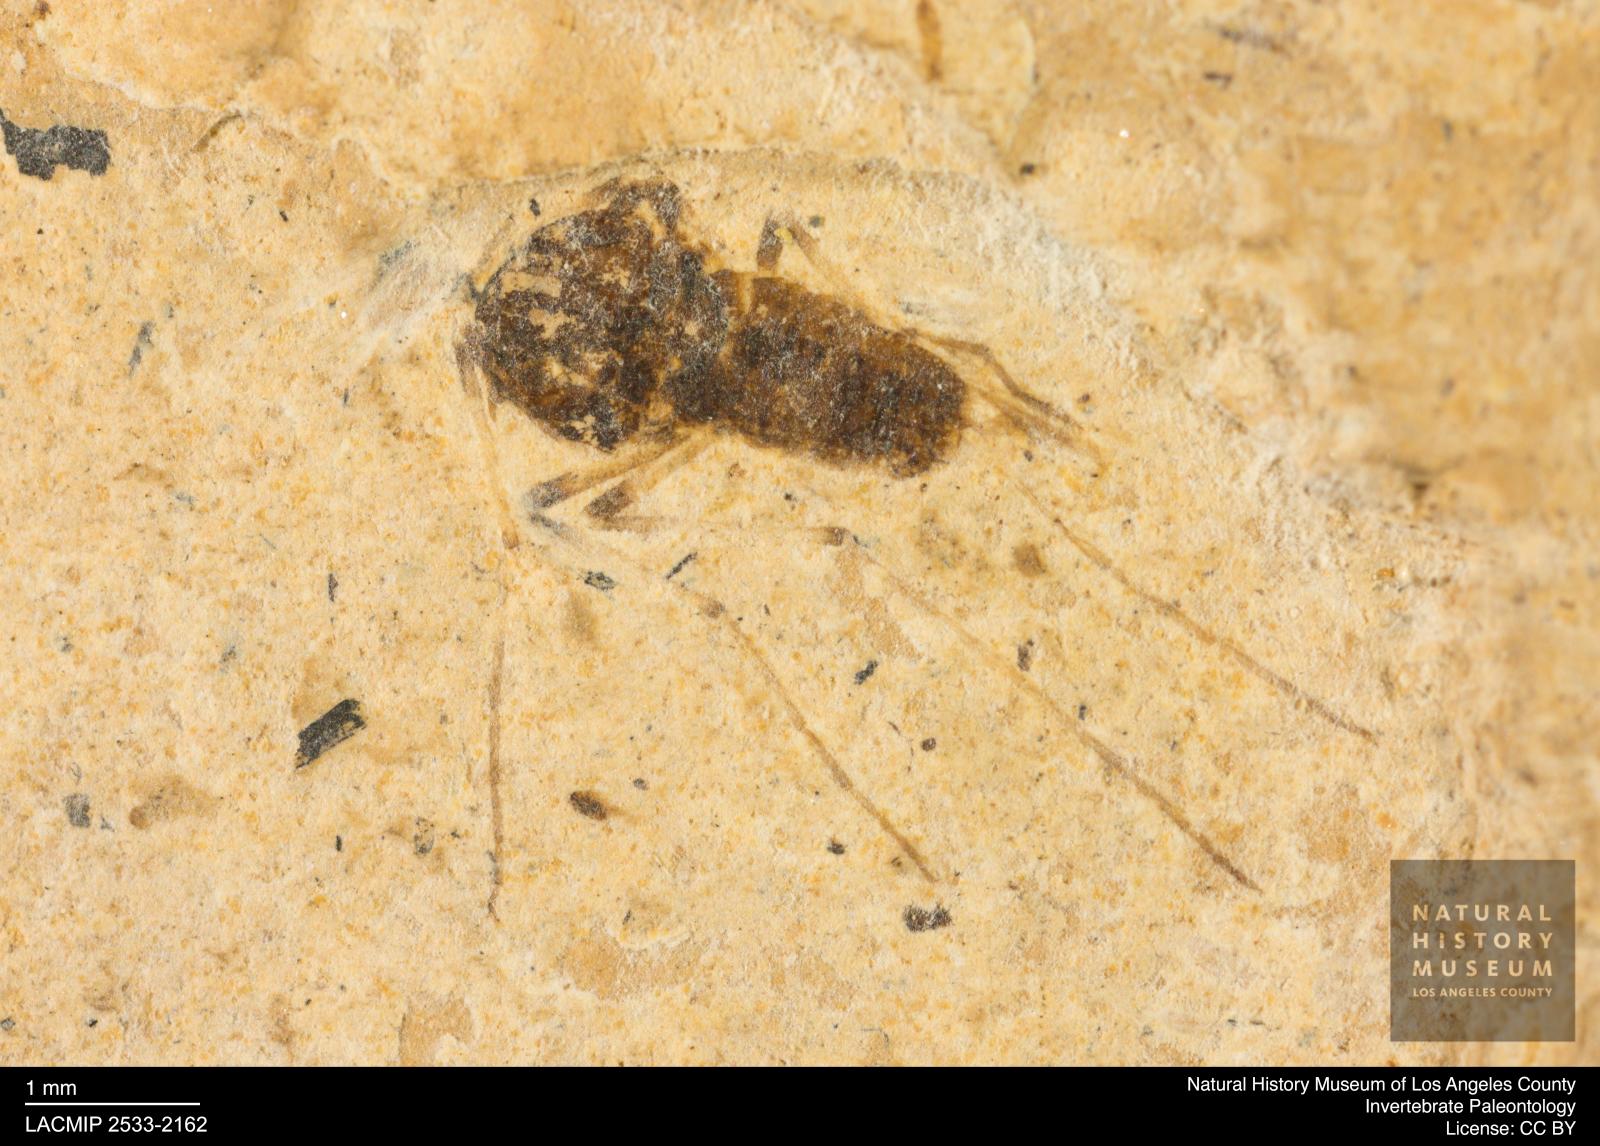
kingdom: Animalia
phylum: Arthropoda
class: Insecta
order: Diptera
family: Chironomidae
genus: Tanypus
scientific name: Tanypus dorminans
